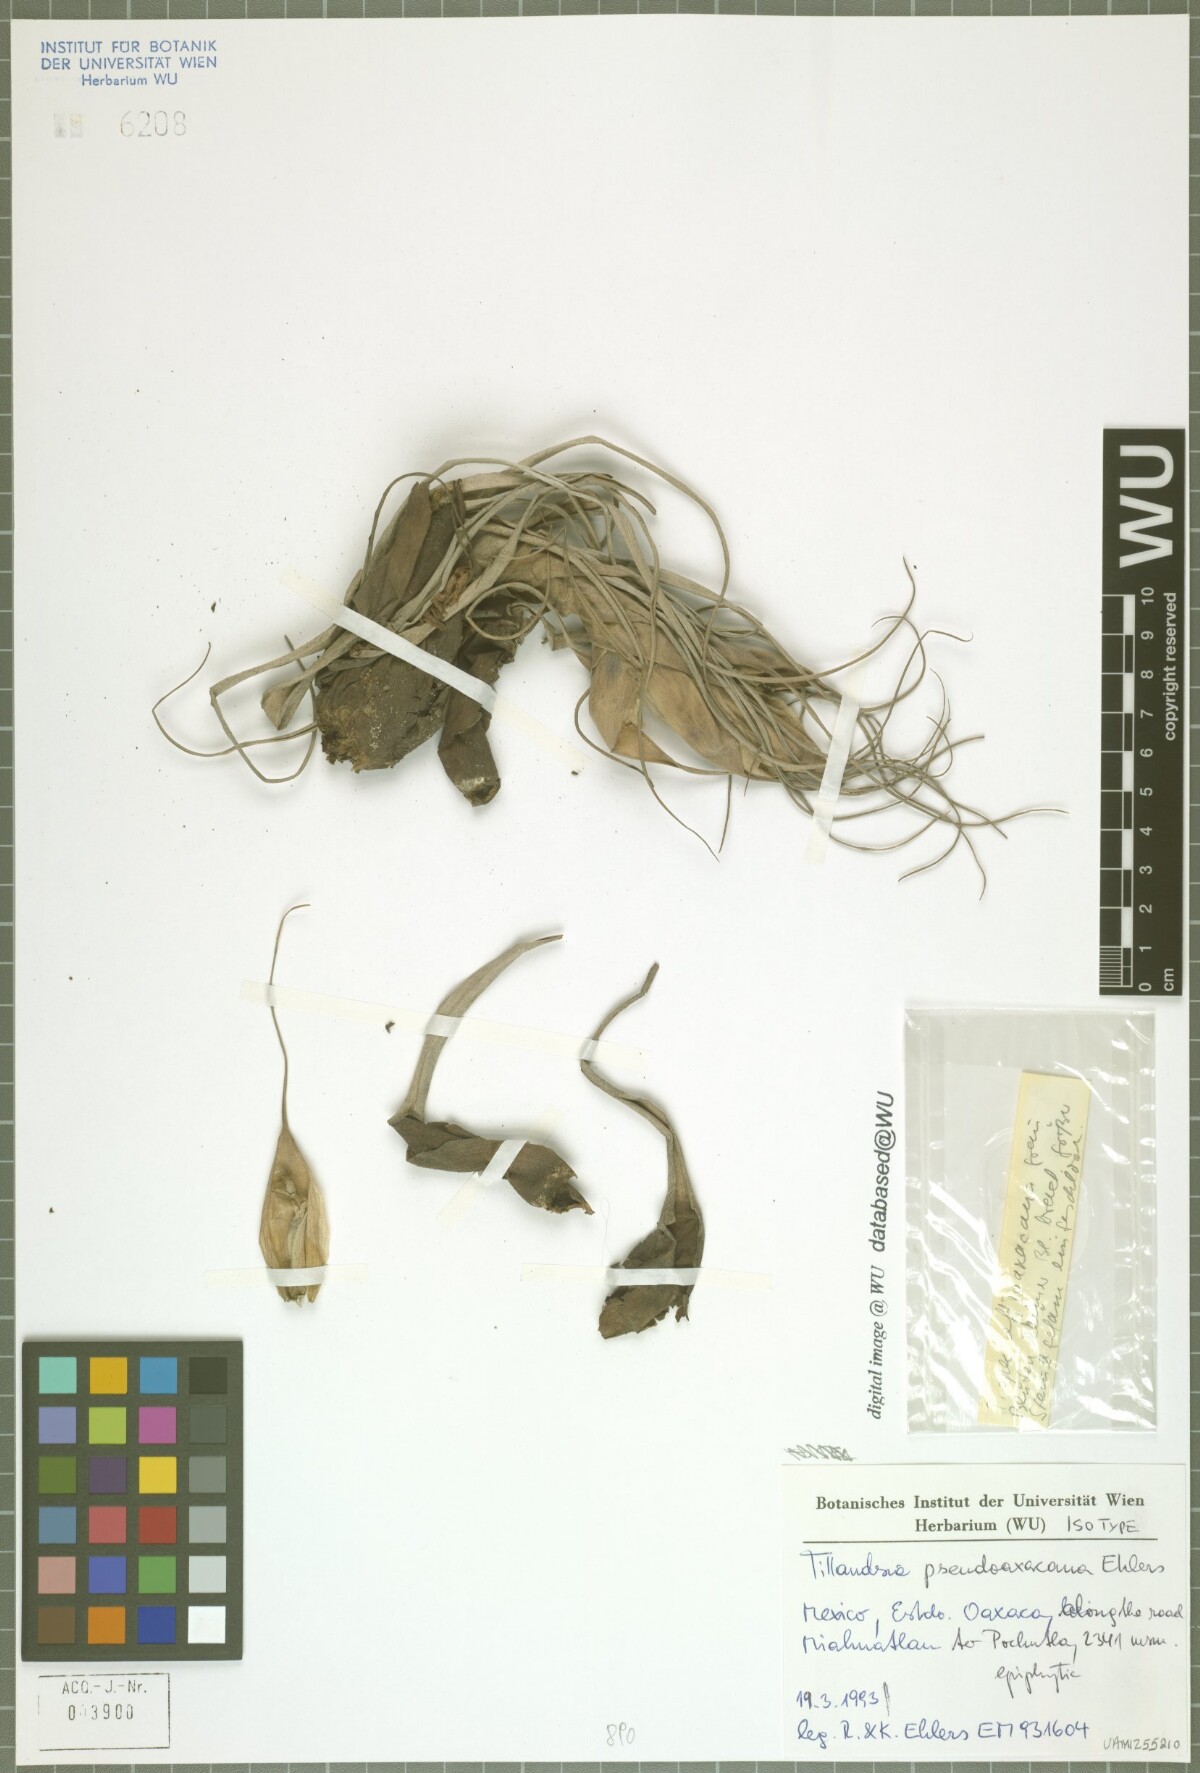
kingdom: Plantae
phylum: Tracheophyta
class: Liliopsida
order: Poales
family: Bromeliaceae
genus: Tillandsia
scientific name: Tillandsia pseudooaxacana
